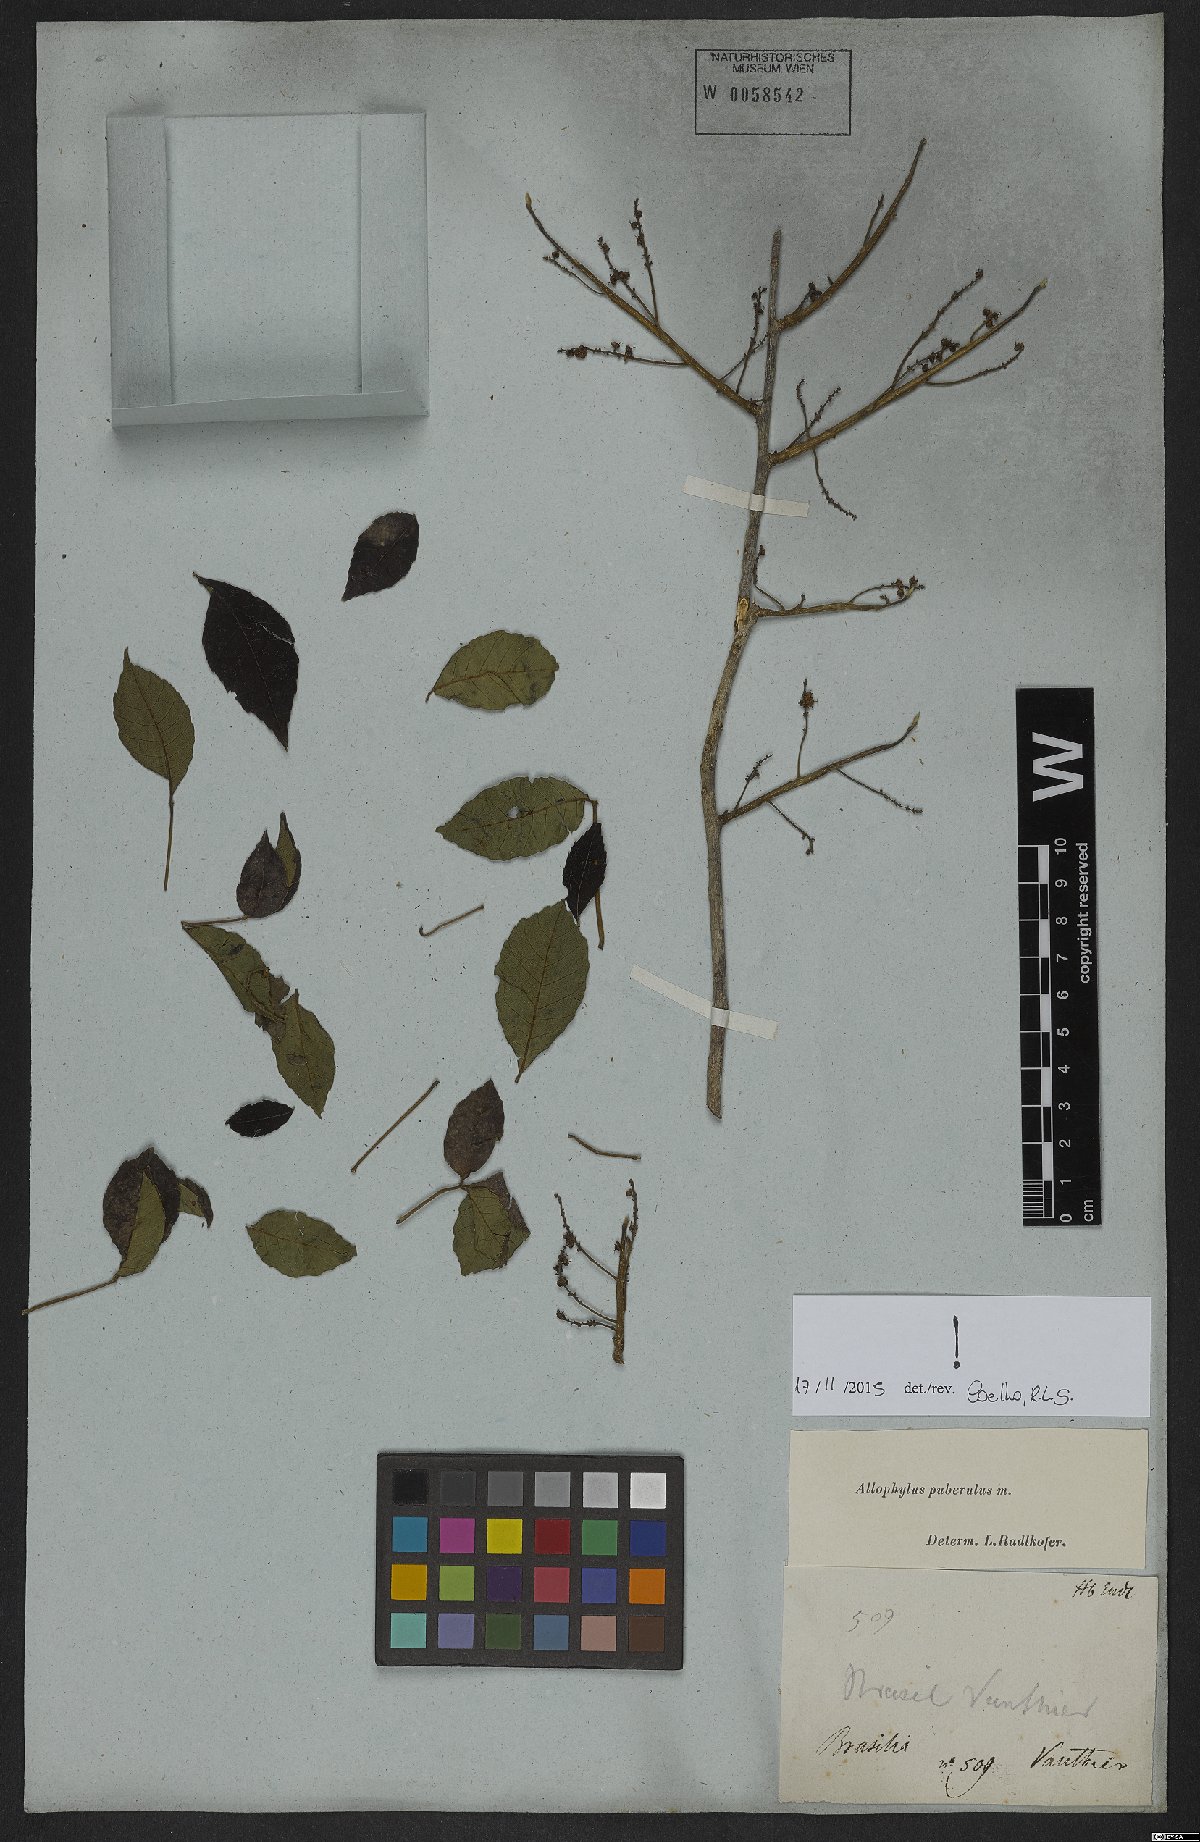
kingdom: Plantae
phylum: Tracheophyta
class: Magnoliopsida
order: Sapindales
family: Sapindaceae
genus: Allophylus
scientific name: Allophylus puberulus
